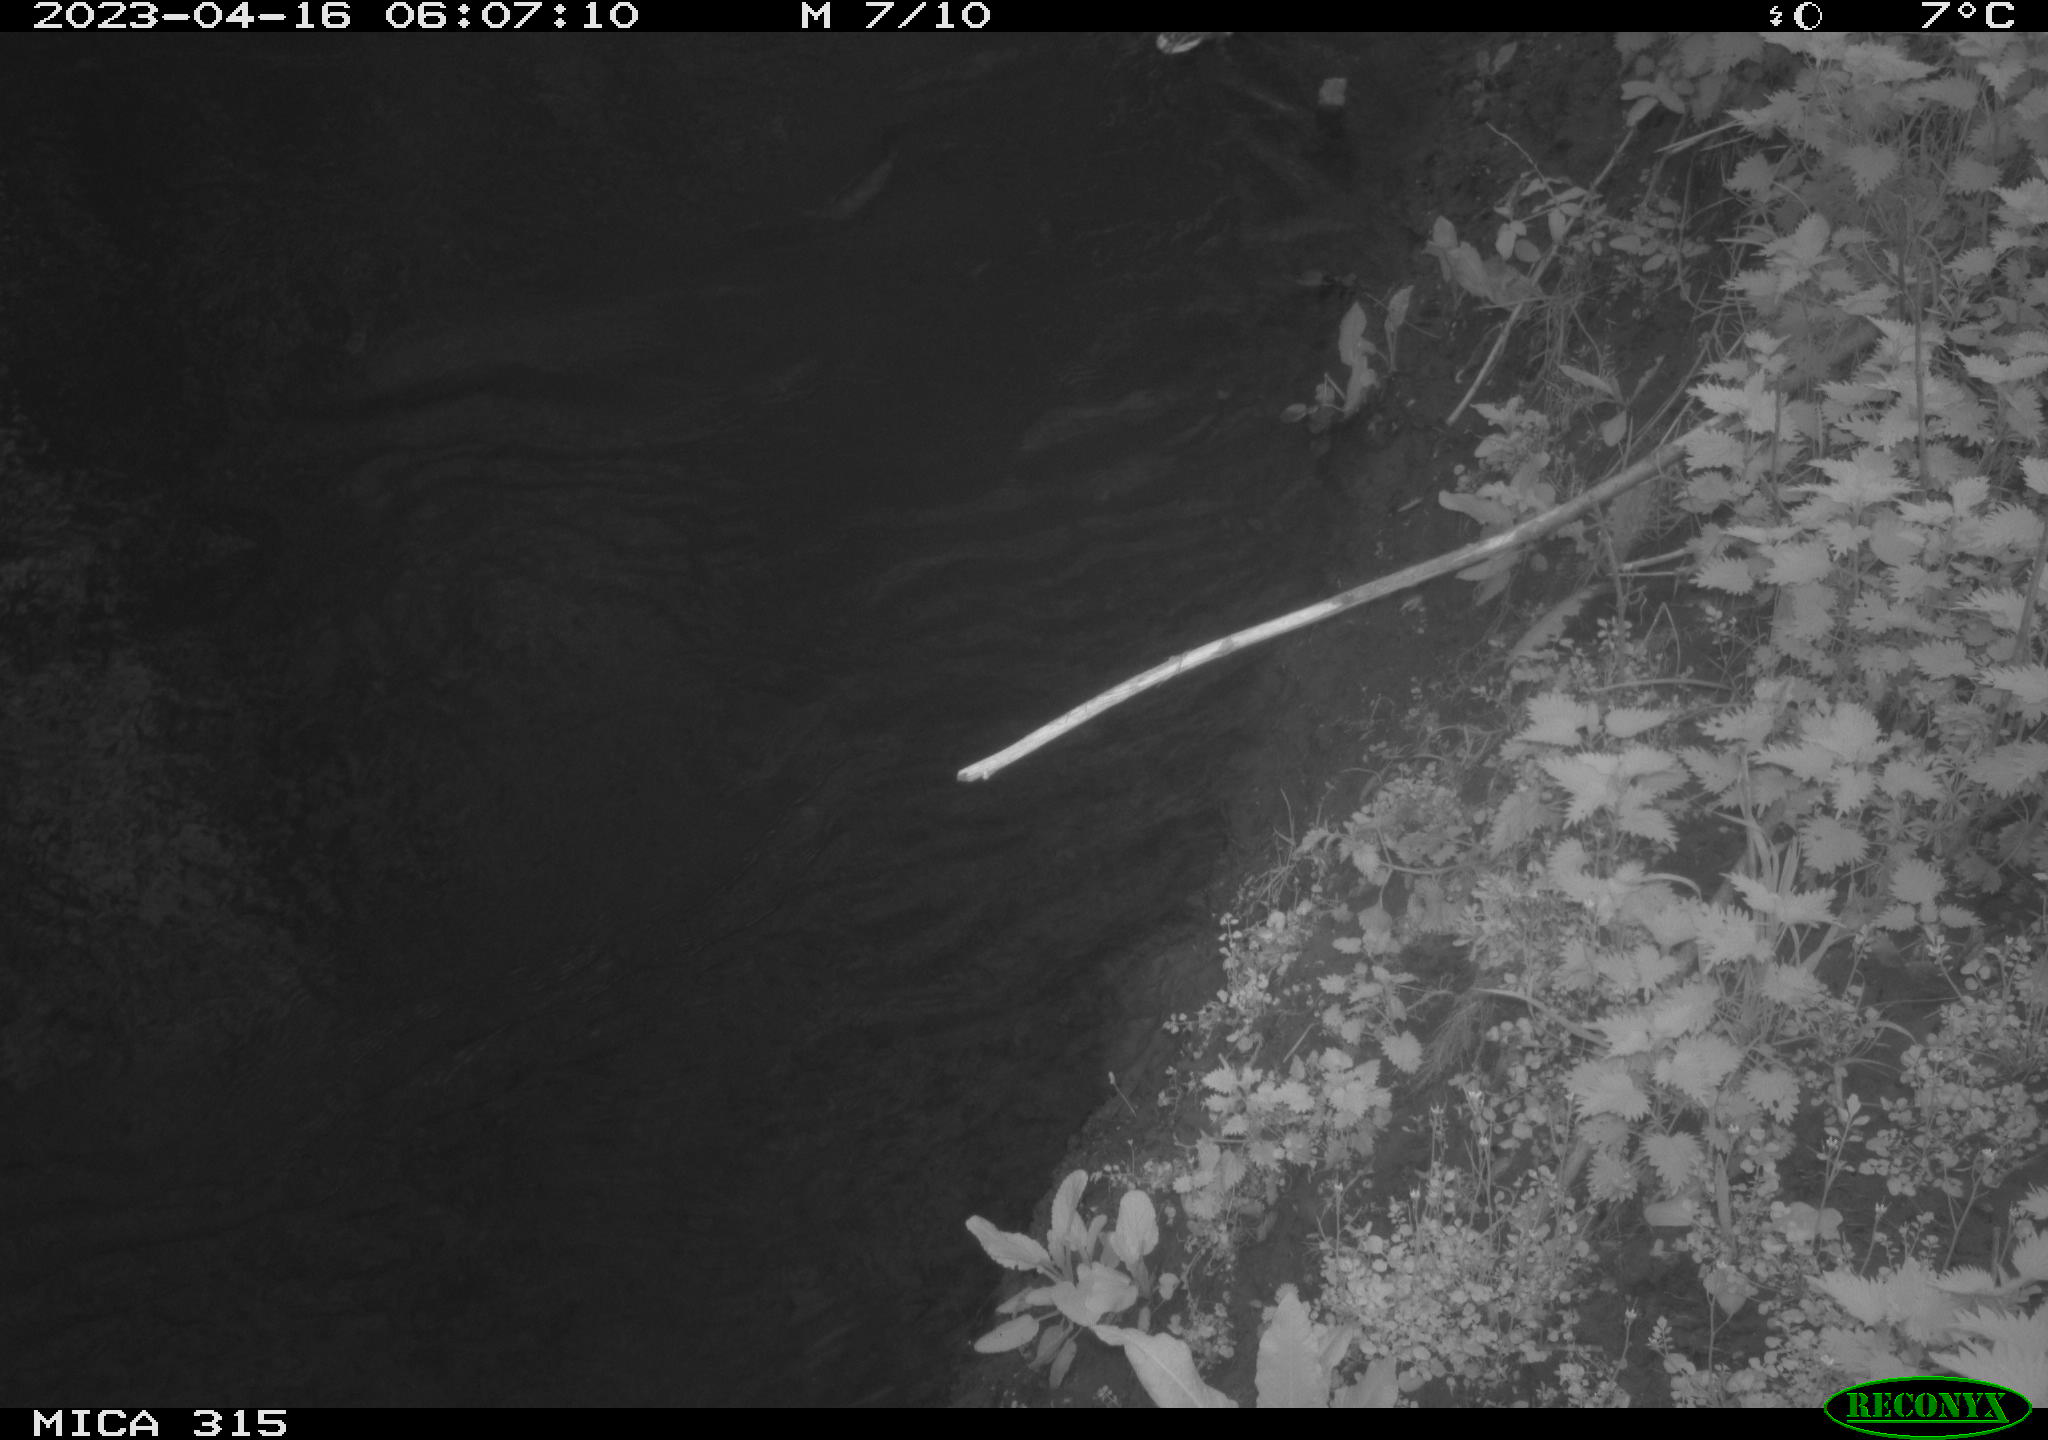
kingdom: Animalia
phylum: Chordata
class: Aves
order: Anseriformes
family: Anatidae
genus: Anas
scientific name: Anas
